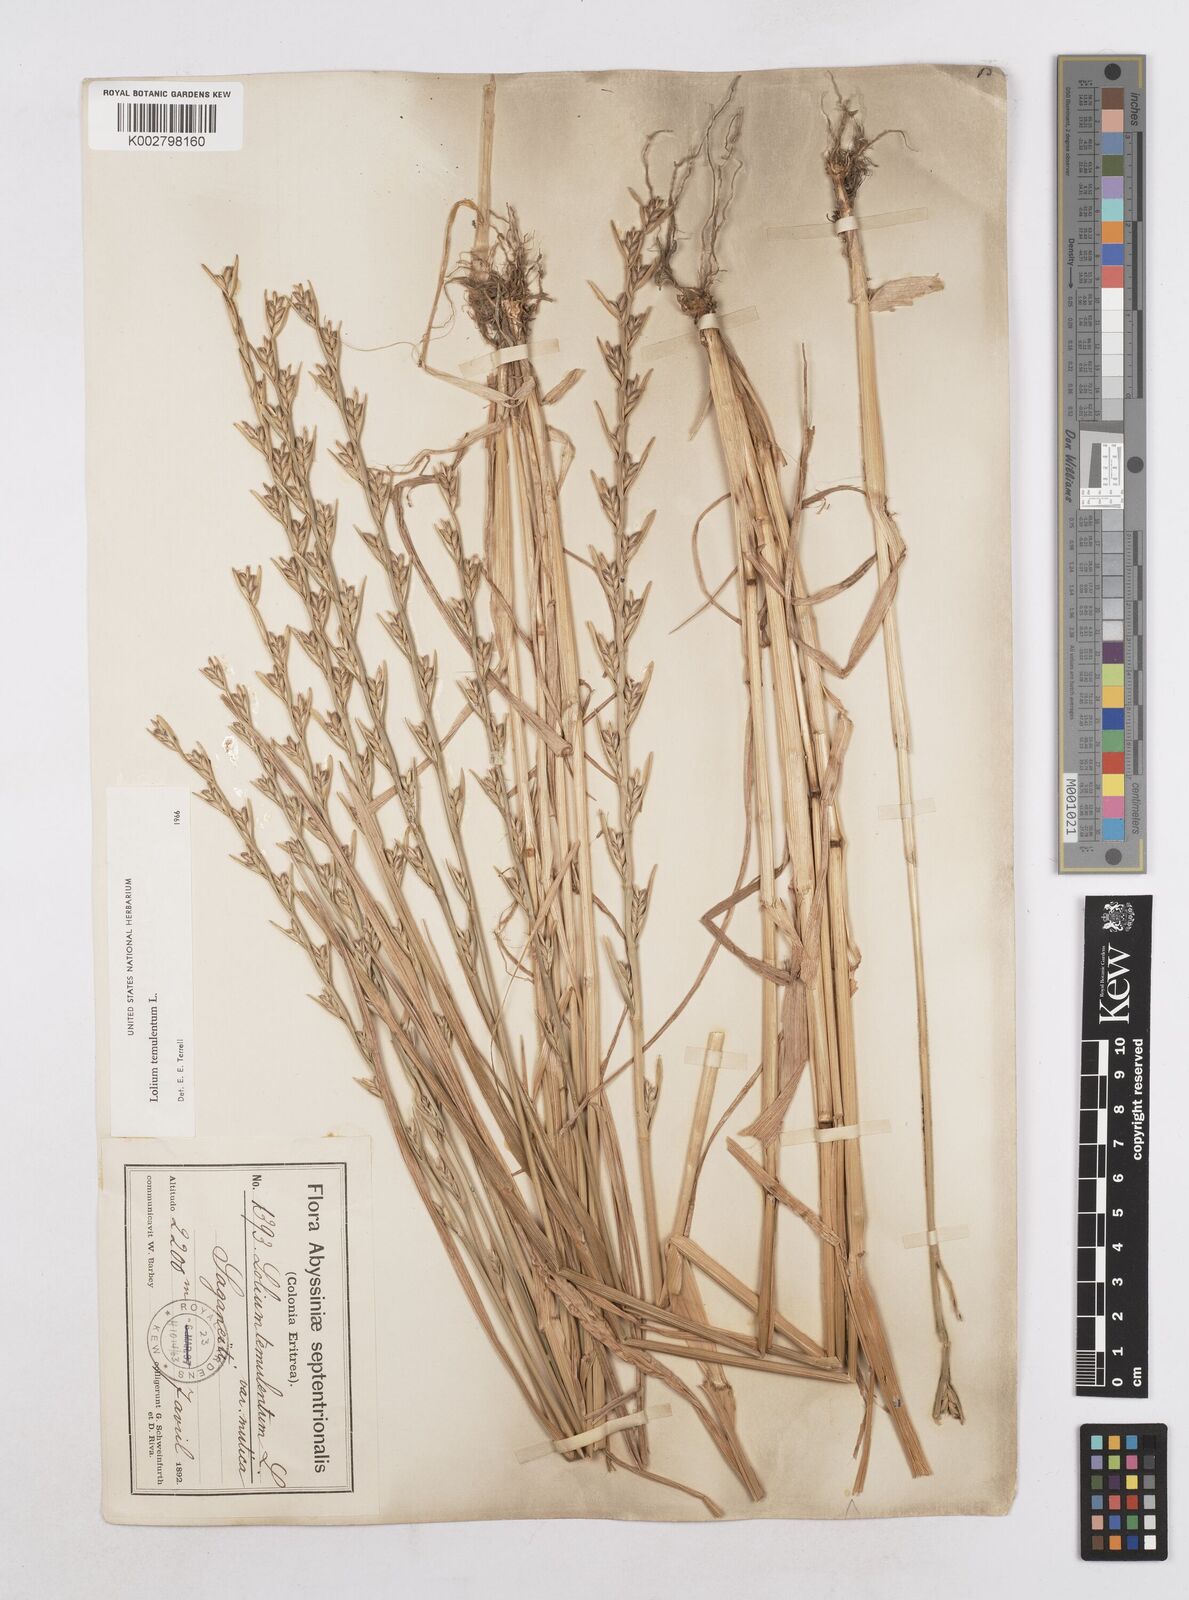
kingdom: Plantae
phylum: Tracheophyta
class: Liliopsida
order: Poales
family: Poaceae
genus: Lolium
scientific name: Lolium temulentum
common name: Darnel
